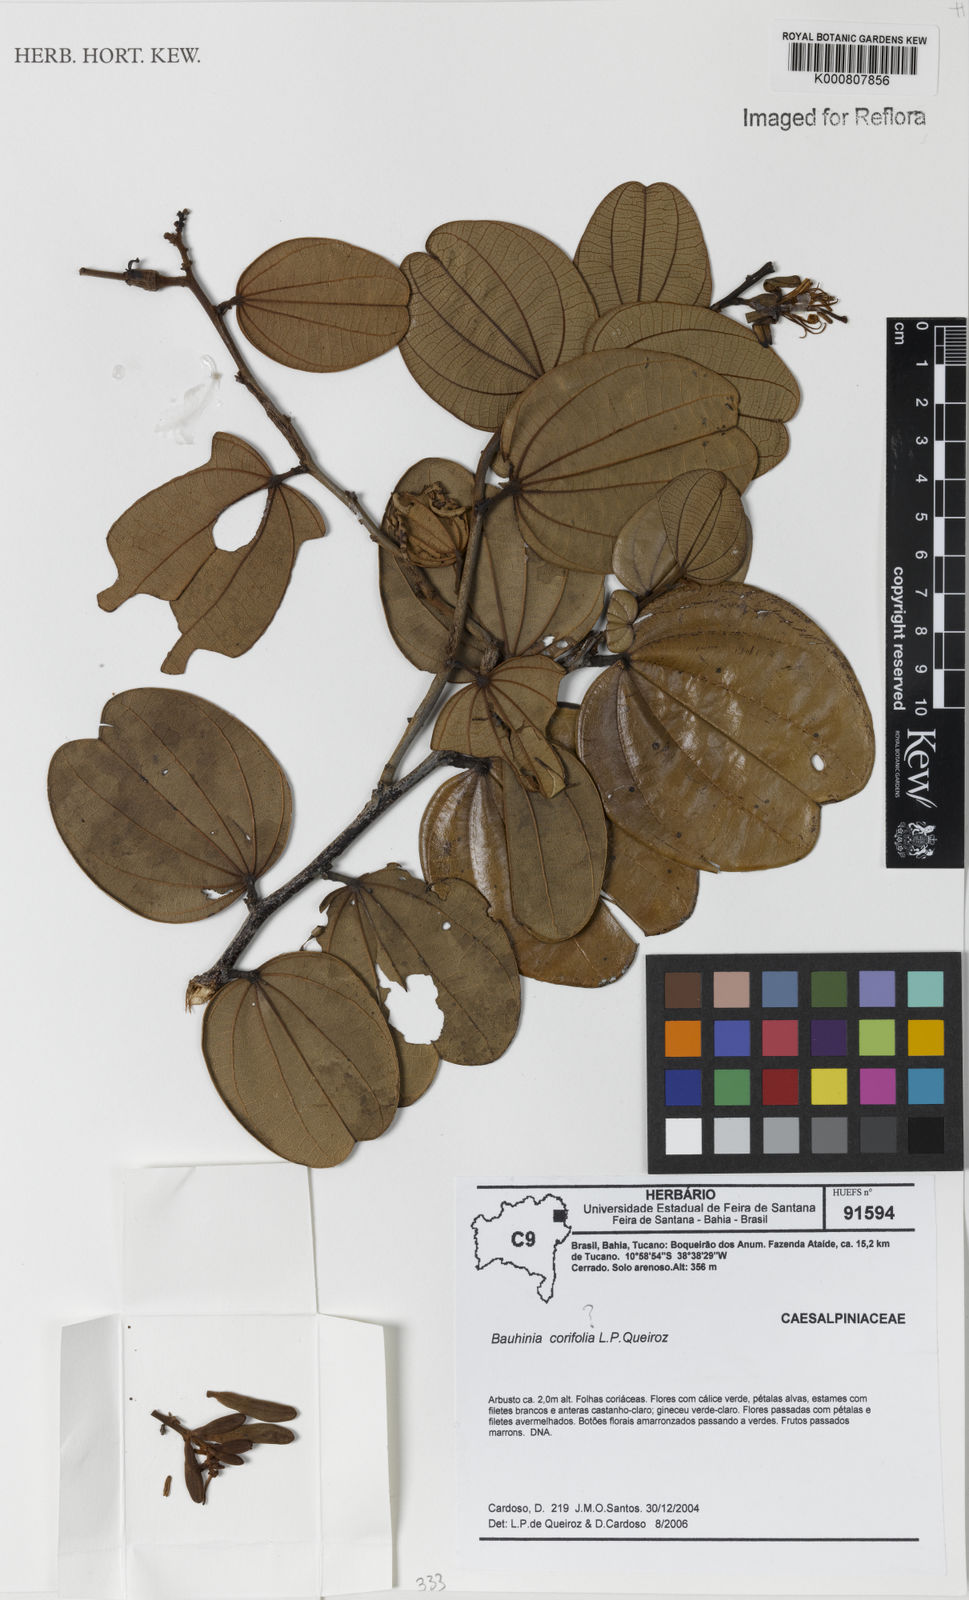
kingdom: Plantae
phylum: Tracheophyta
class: Magnoliopsida
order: Fabales
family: Fabaceae
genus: Bauhinia
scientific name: Bauhinia
